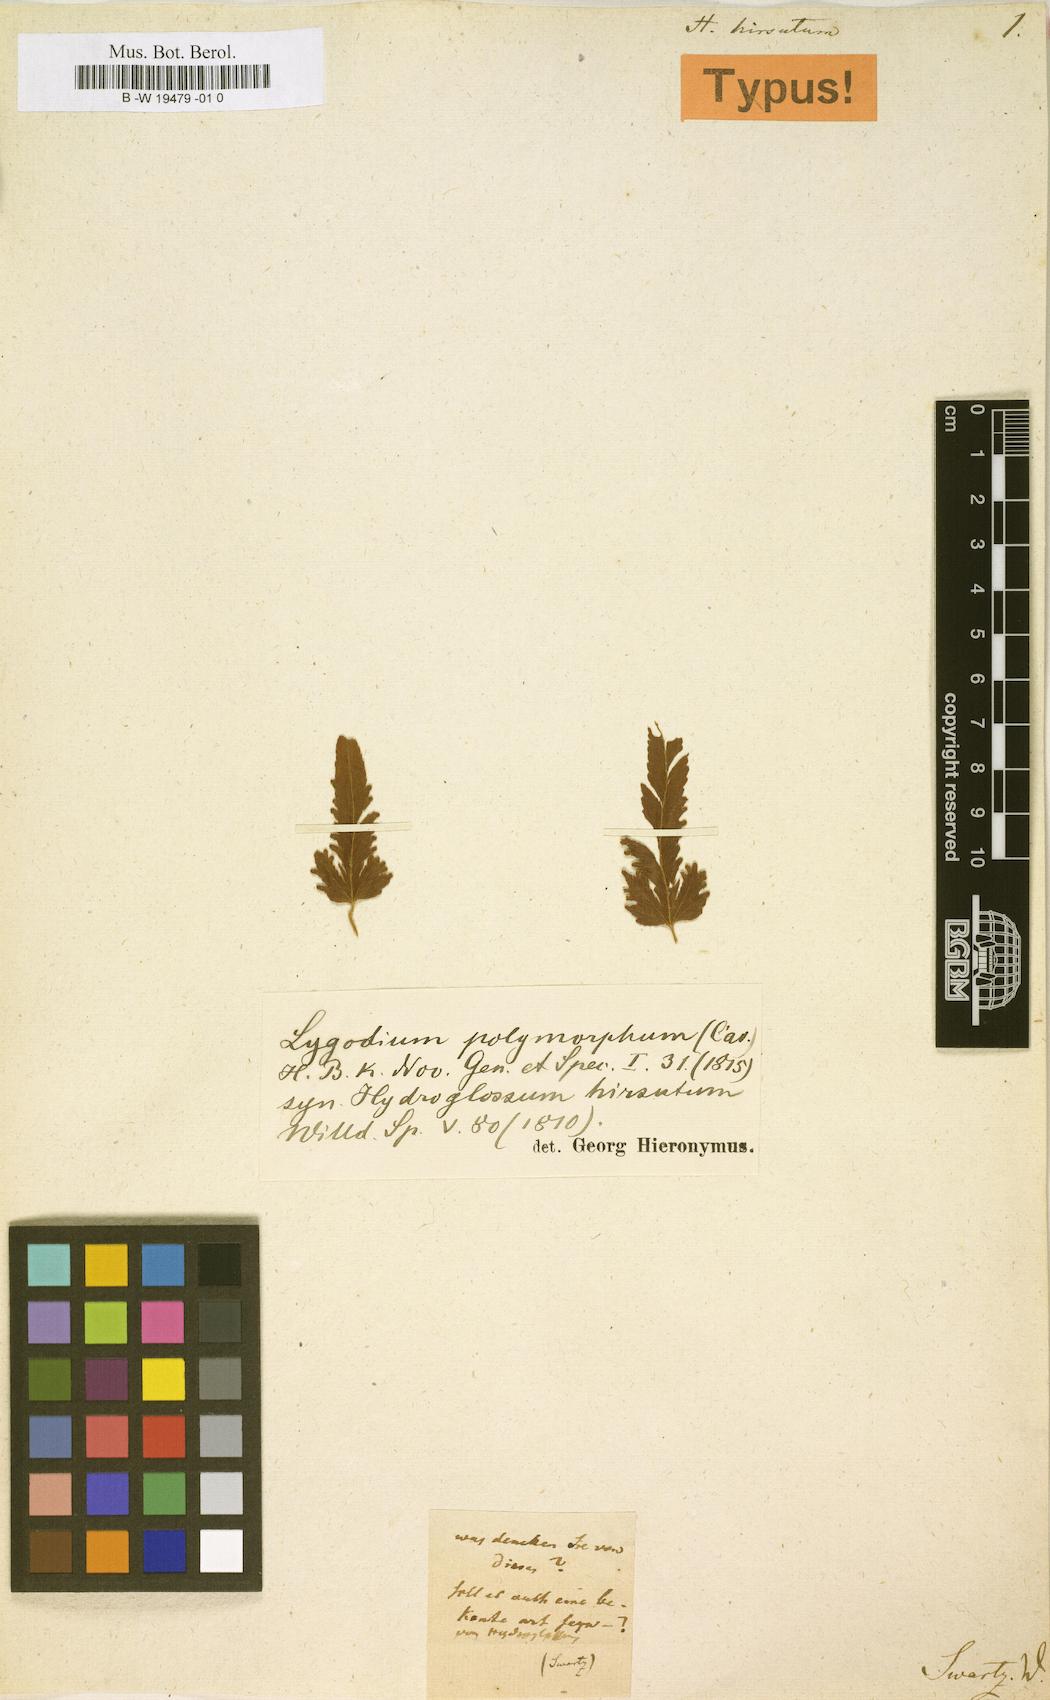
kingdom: Plantae
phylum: Tracheophyta
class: Polypodiopsida
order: Schizaeales
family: Lygodiaceae
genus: Lygodium
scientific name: Lygodium venustum
